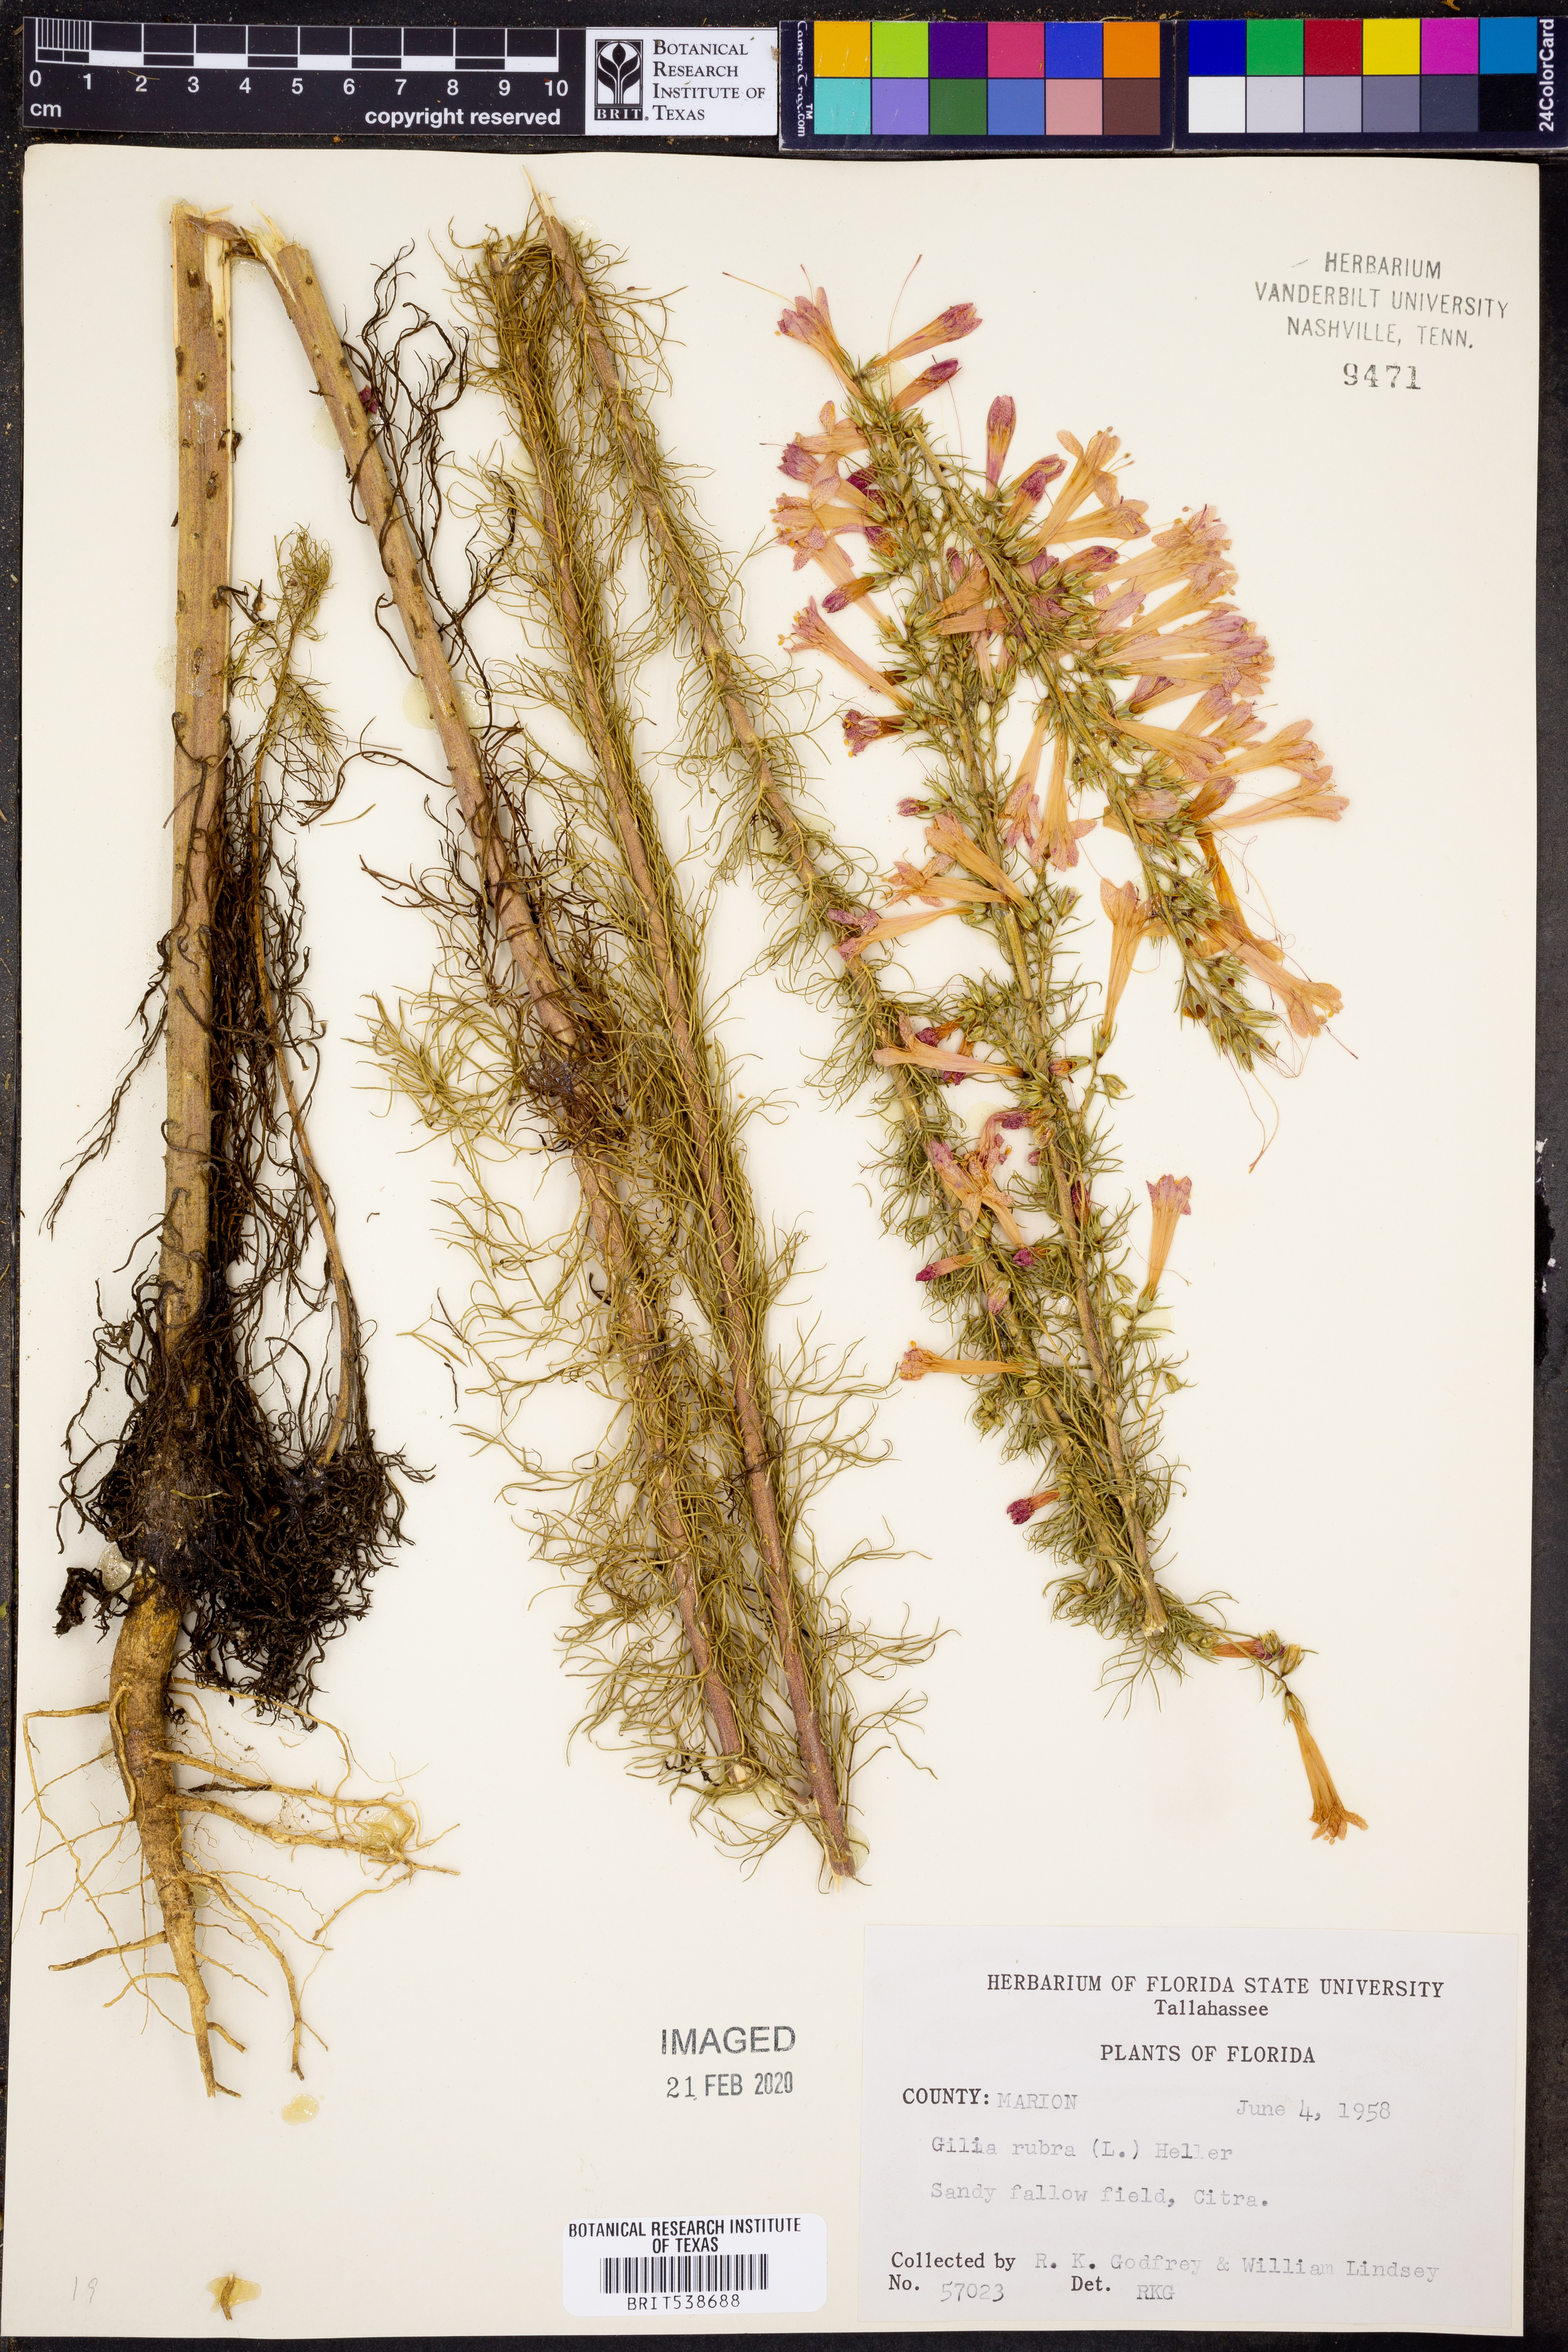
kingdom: Plantae
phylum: Tracheophyta
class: Magnoliopsida
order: Ericales
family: Polemoniaceae
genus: Ipomopsis
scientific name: Ipomopsis rubra
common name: Skyrocket
